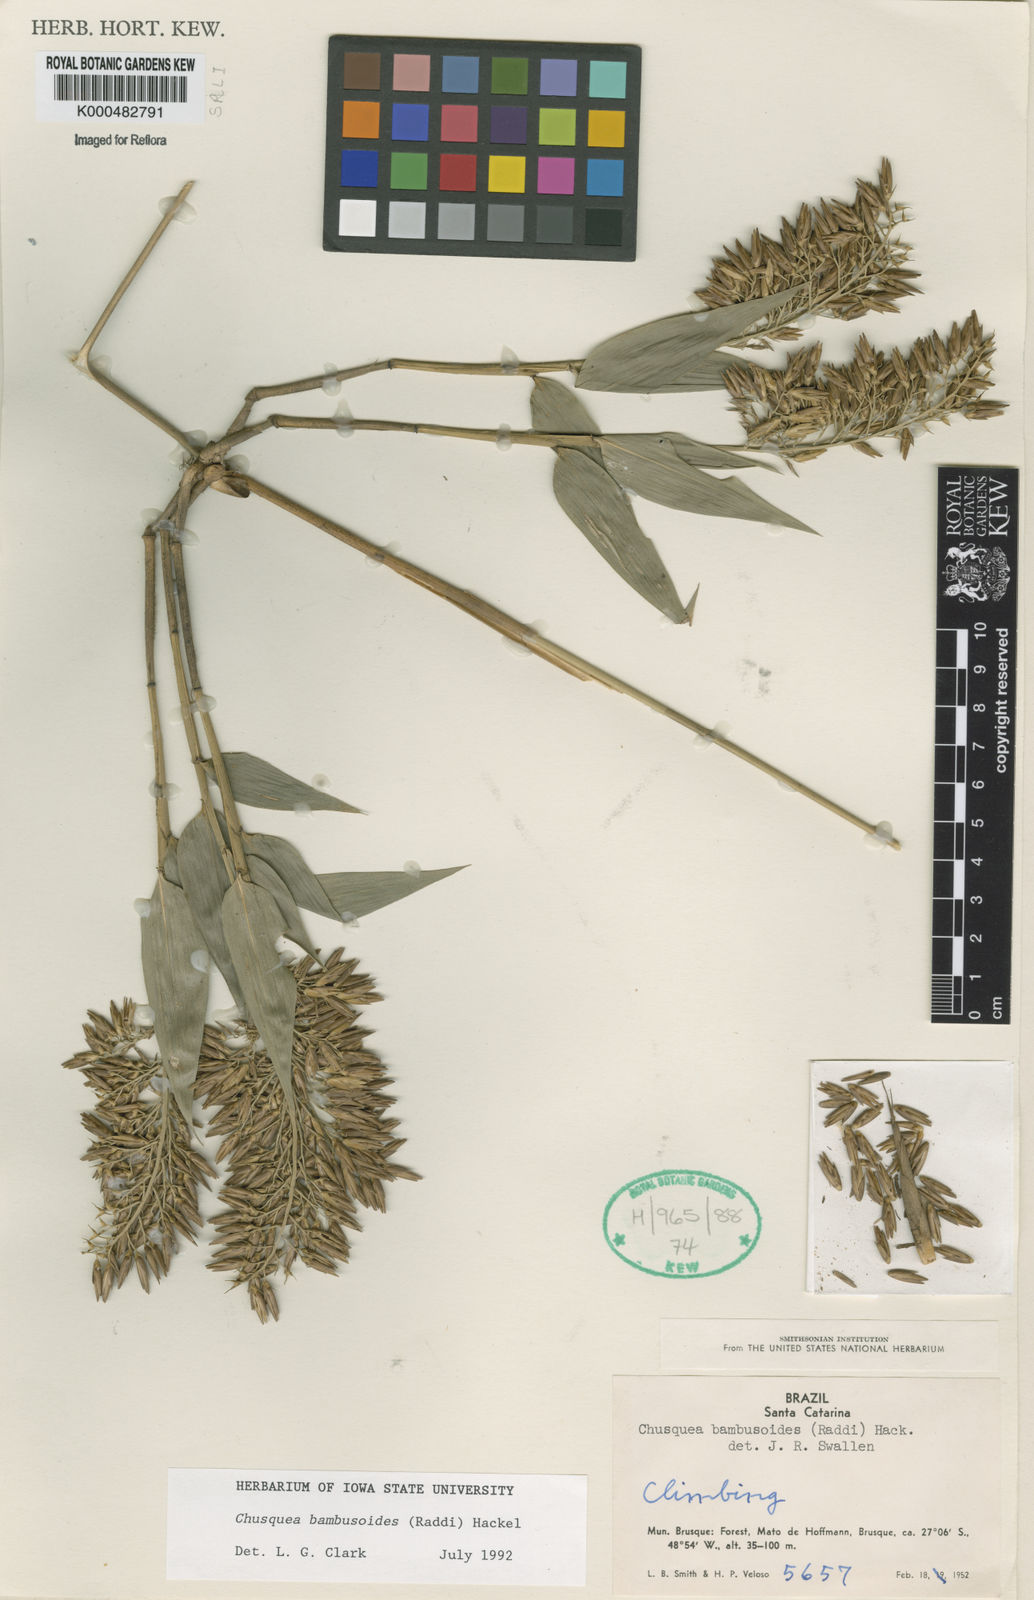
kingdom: Plantae
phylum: Tracheophyta
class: Liliopsida
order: Poales
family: Poaceae
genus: Chusquea
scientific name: Chusquea bambusoides
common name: Brazil scrambling bamboo
